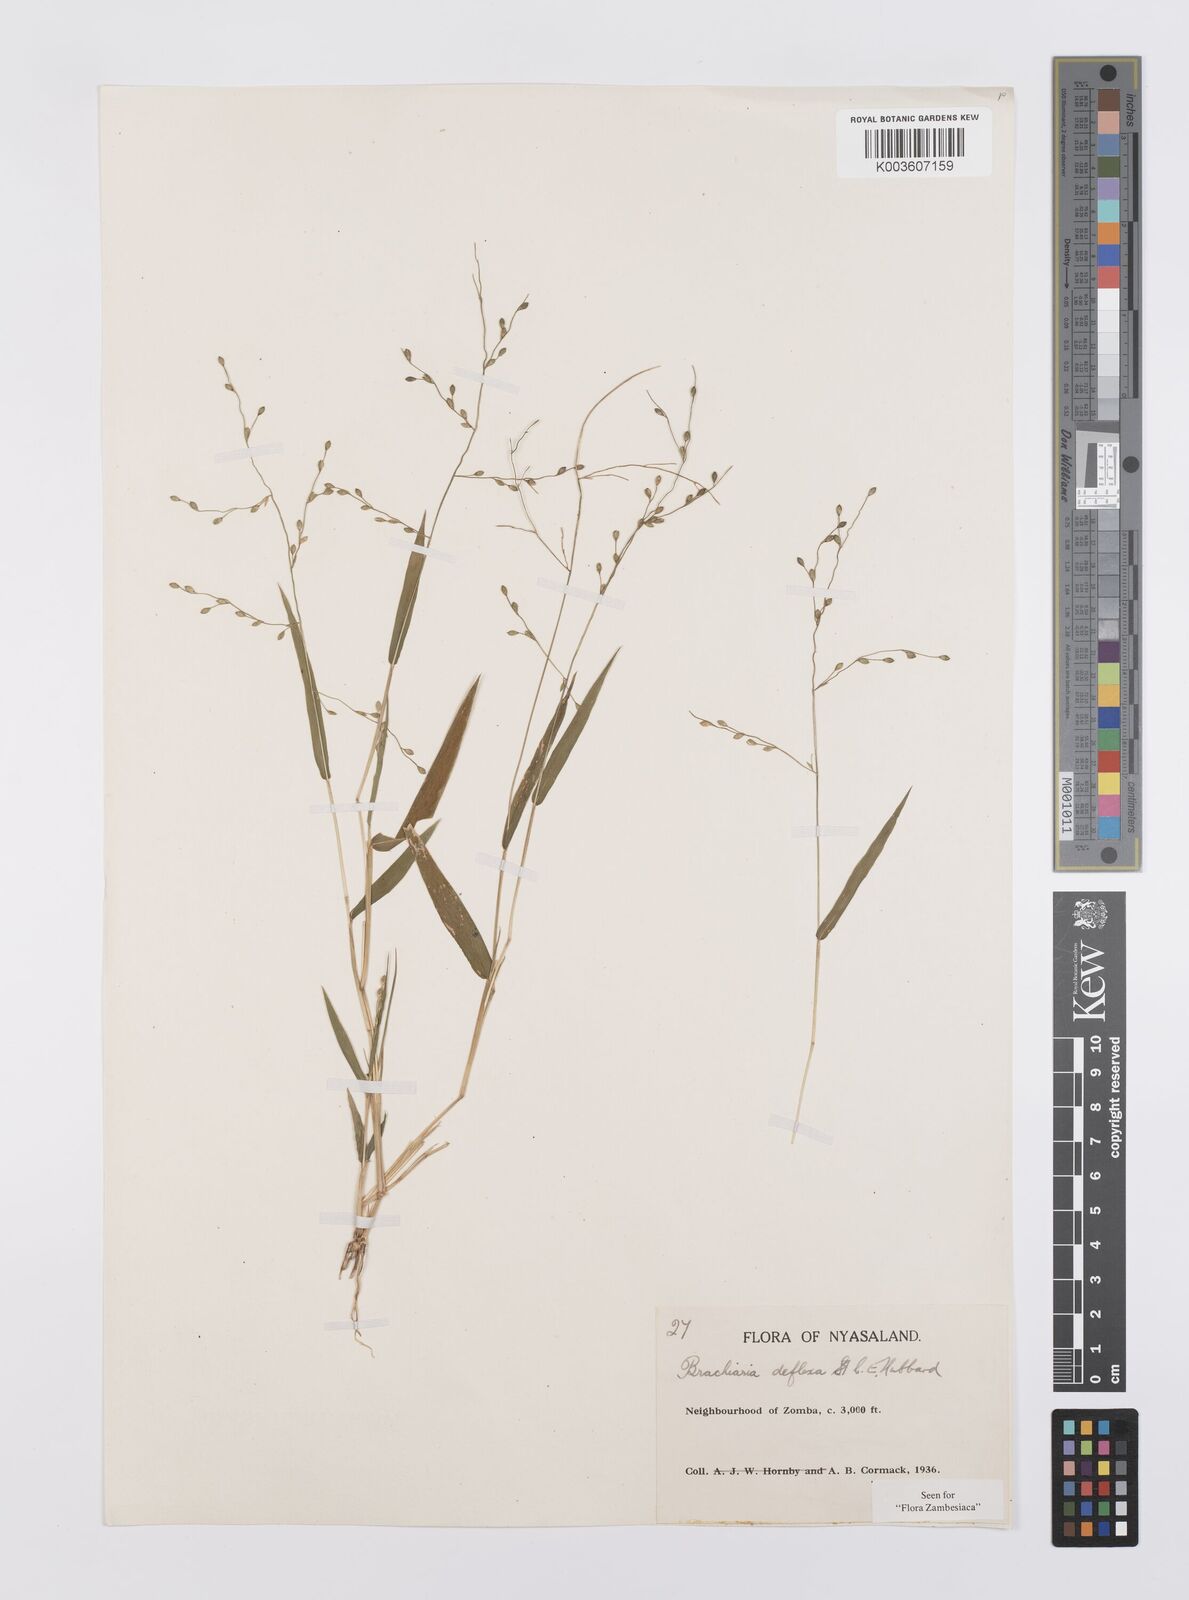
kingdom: Plantae
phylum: Tracheophyta
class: Liliopsida
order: Poales
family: Poaceae
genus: Urochloa
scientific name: Urochloa deflexa
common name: Guinea millet
